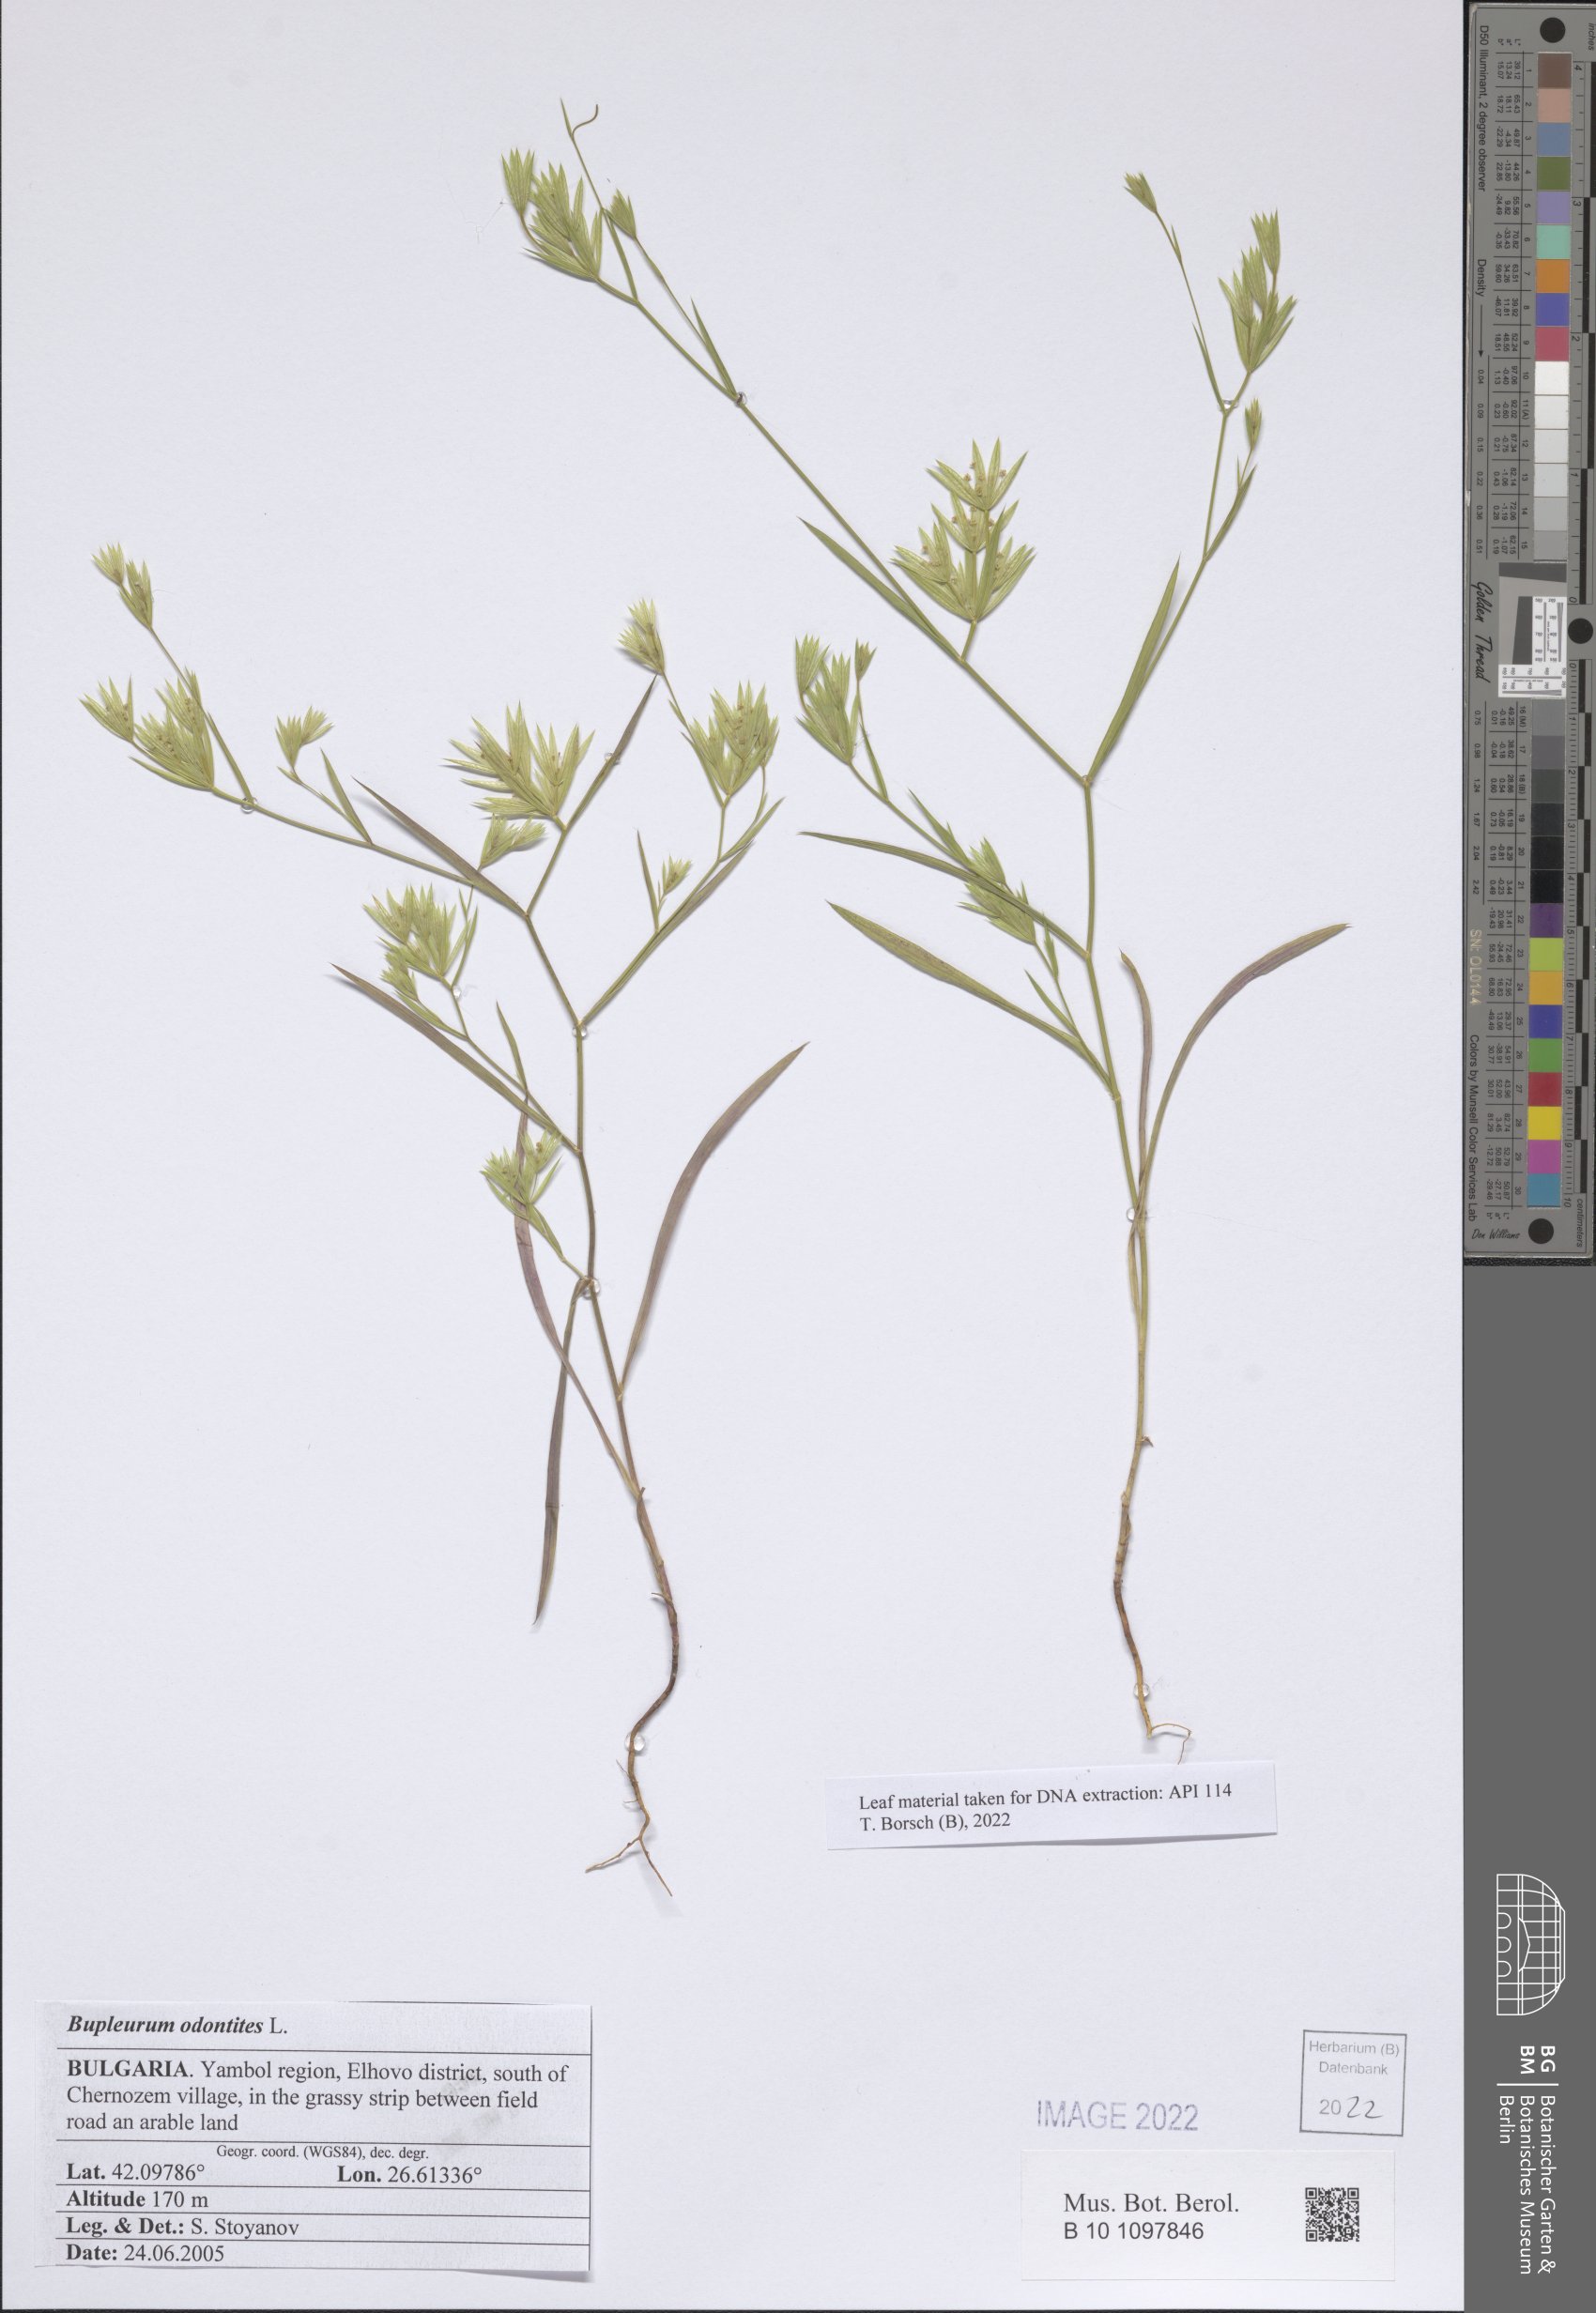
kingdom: Plantae
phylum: Tracheophyta
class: Magnoliopsida
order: Apiales
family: Apiaceae
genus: Bupleurum
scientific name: Bupleurum odontites
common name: Narrowleaf thorow wax
